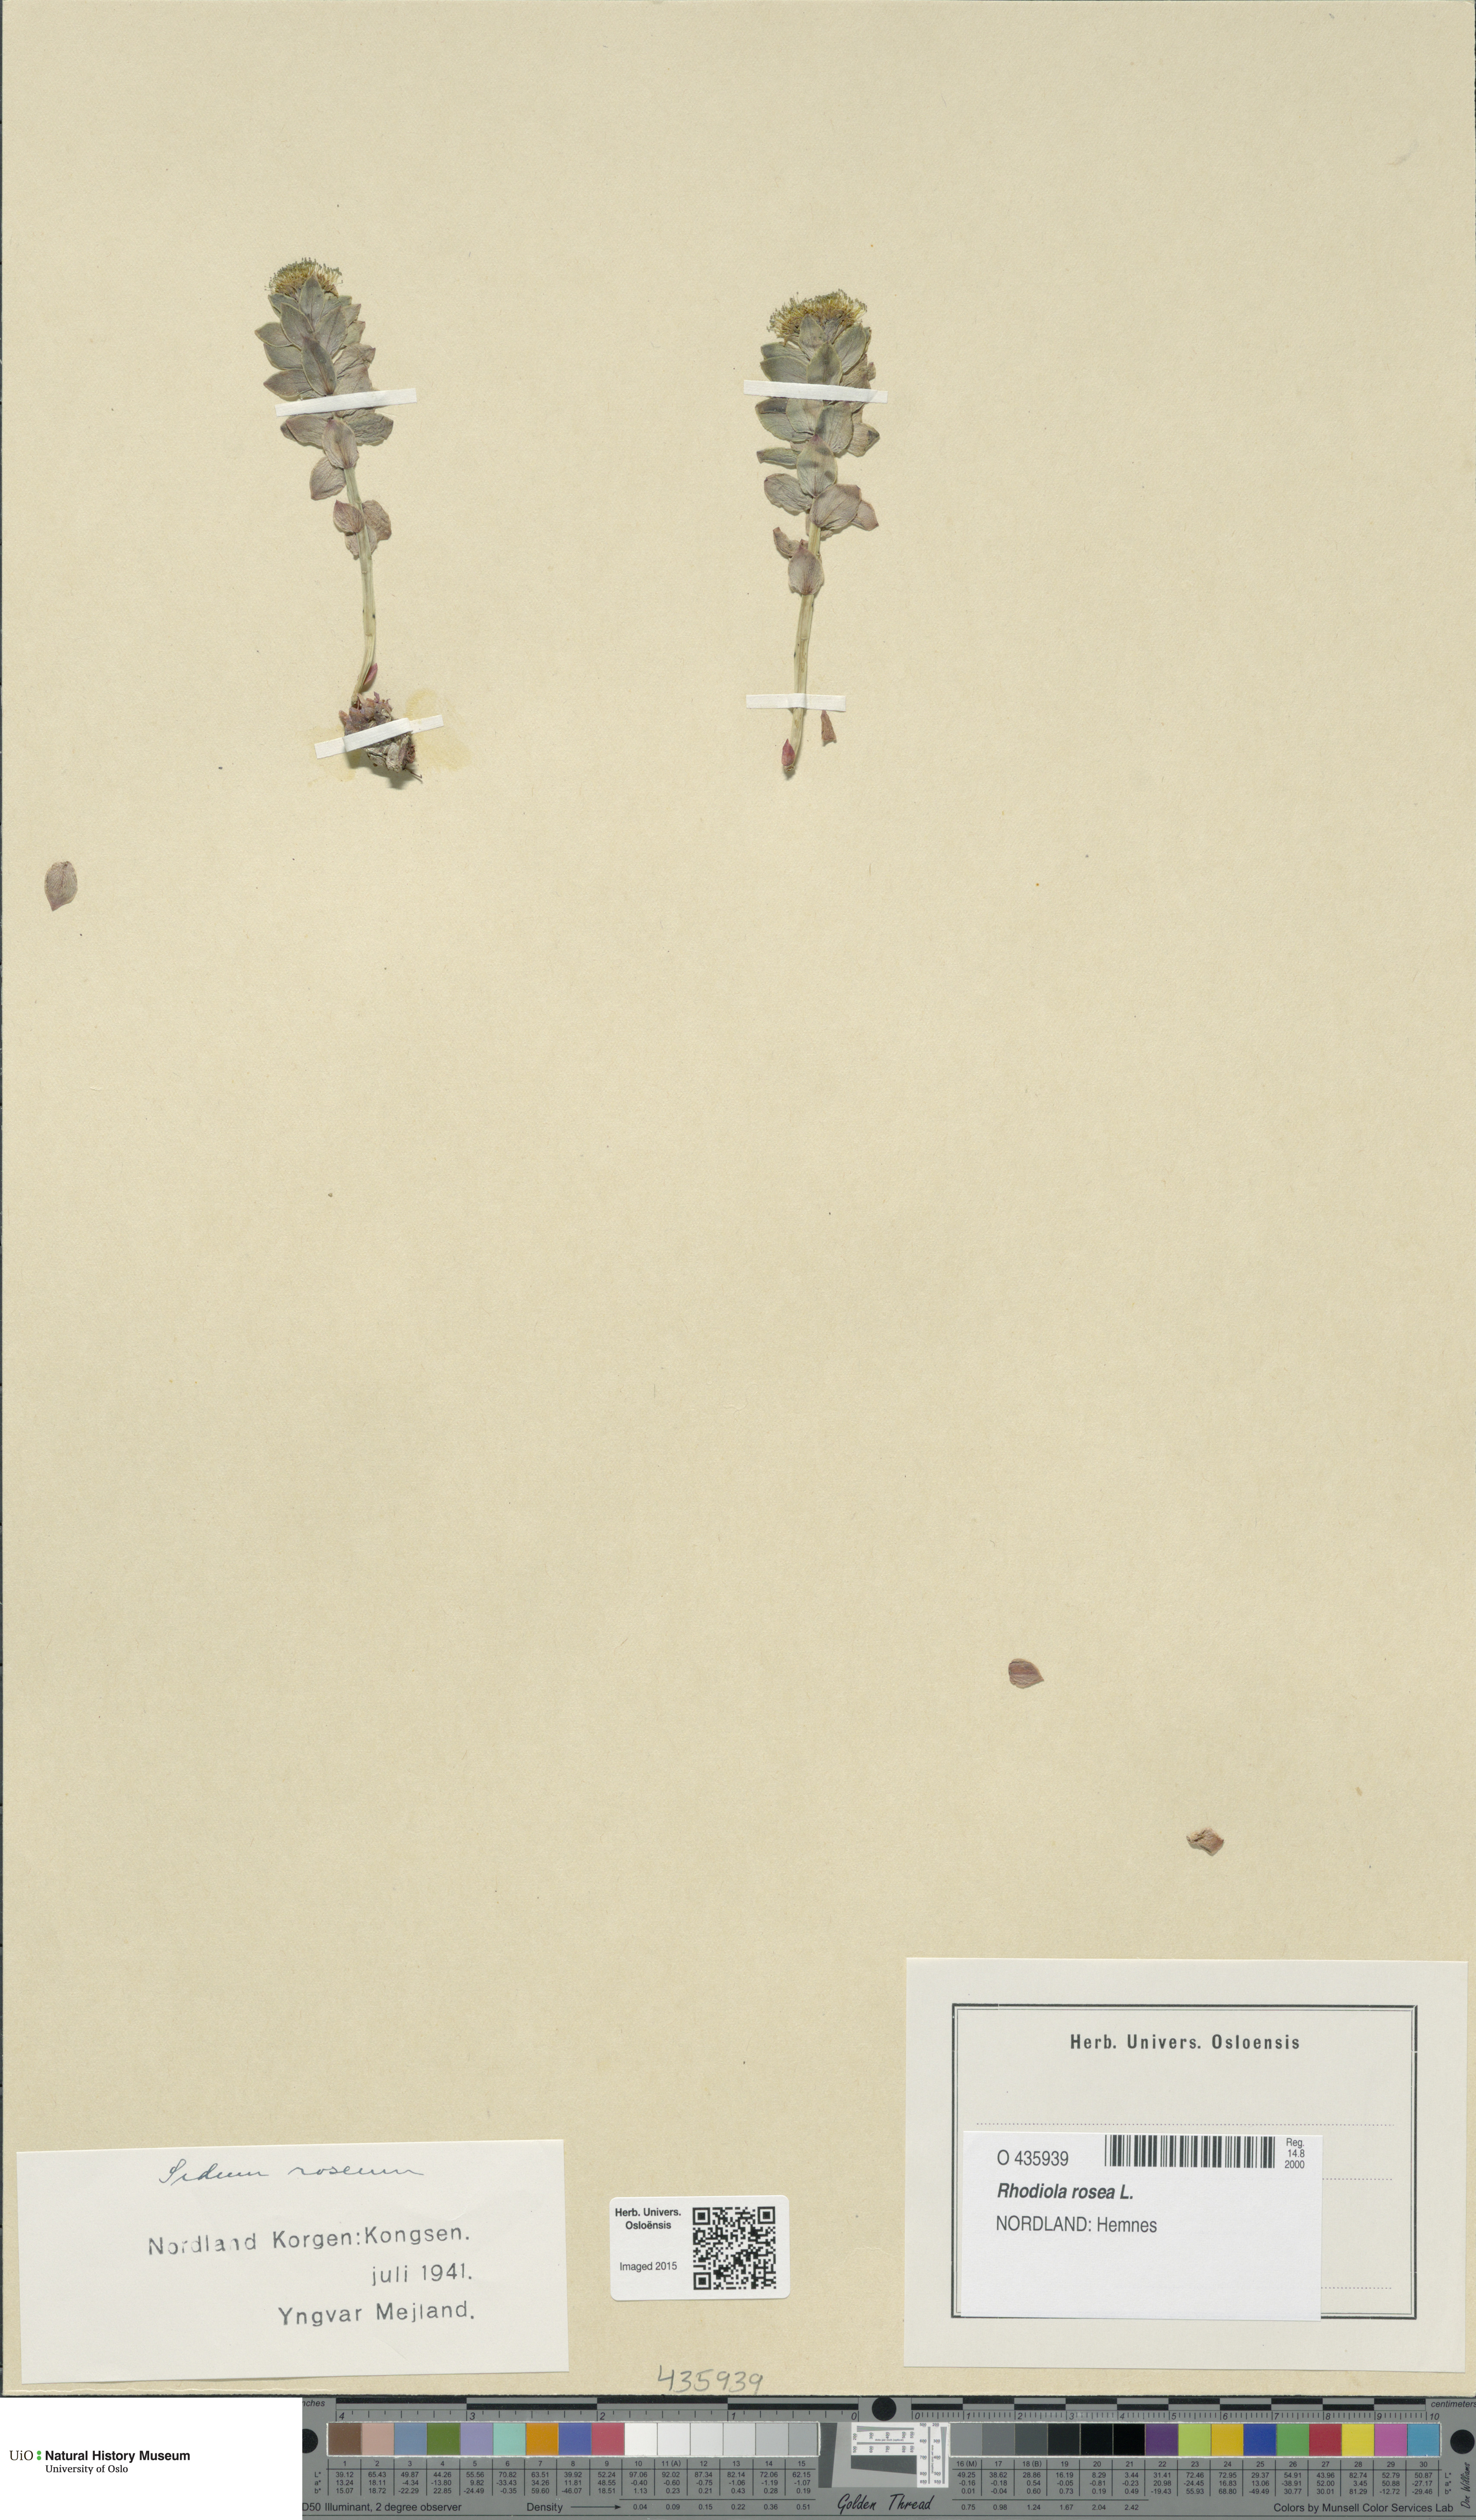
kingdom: Plantae
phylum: Tracheophyta
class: Magnoliopsida
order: Saxifragales
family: Crassulaceae
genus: Rhodiola
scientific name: Rhodiola rosea
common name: Roseroot
